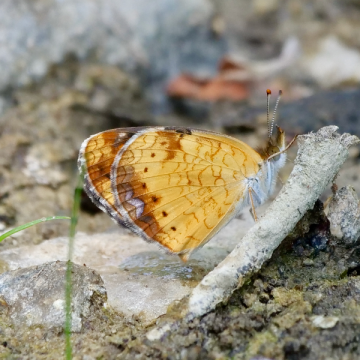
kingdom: Animalia
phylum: Arthropoda
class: Insecta
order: Lepidoptera
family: Nymphalidae
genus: Phyciodes
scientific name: Phyciodes tharos
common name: Northern Crescent
